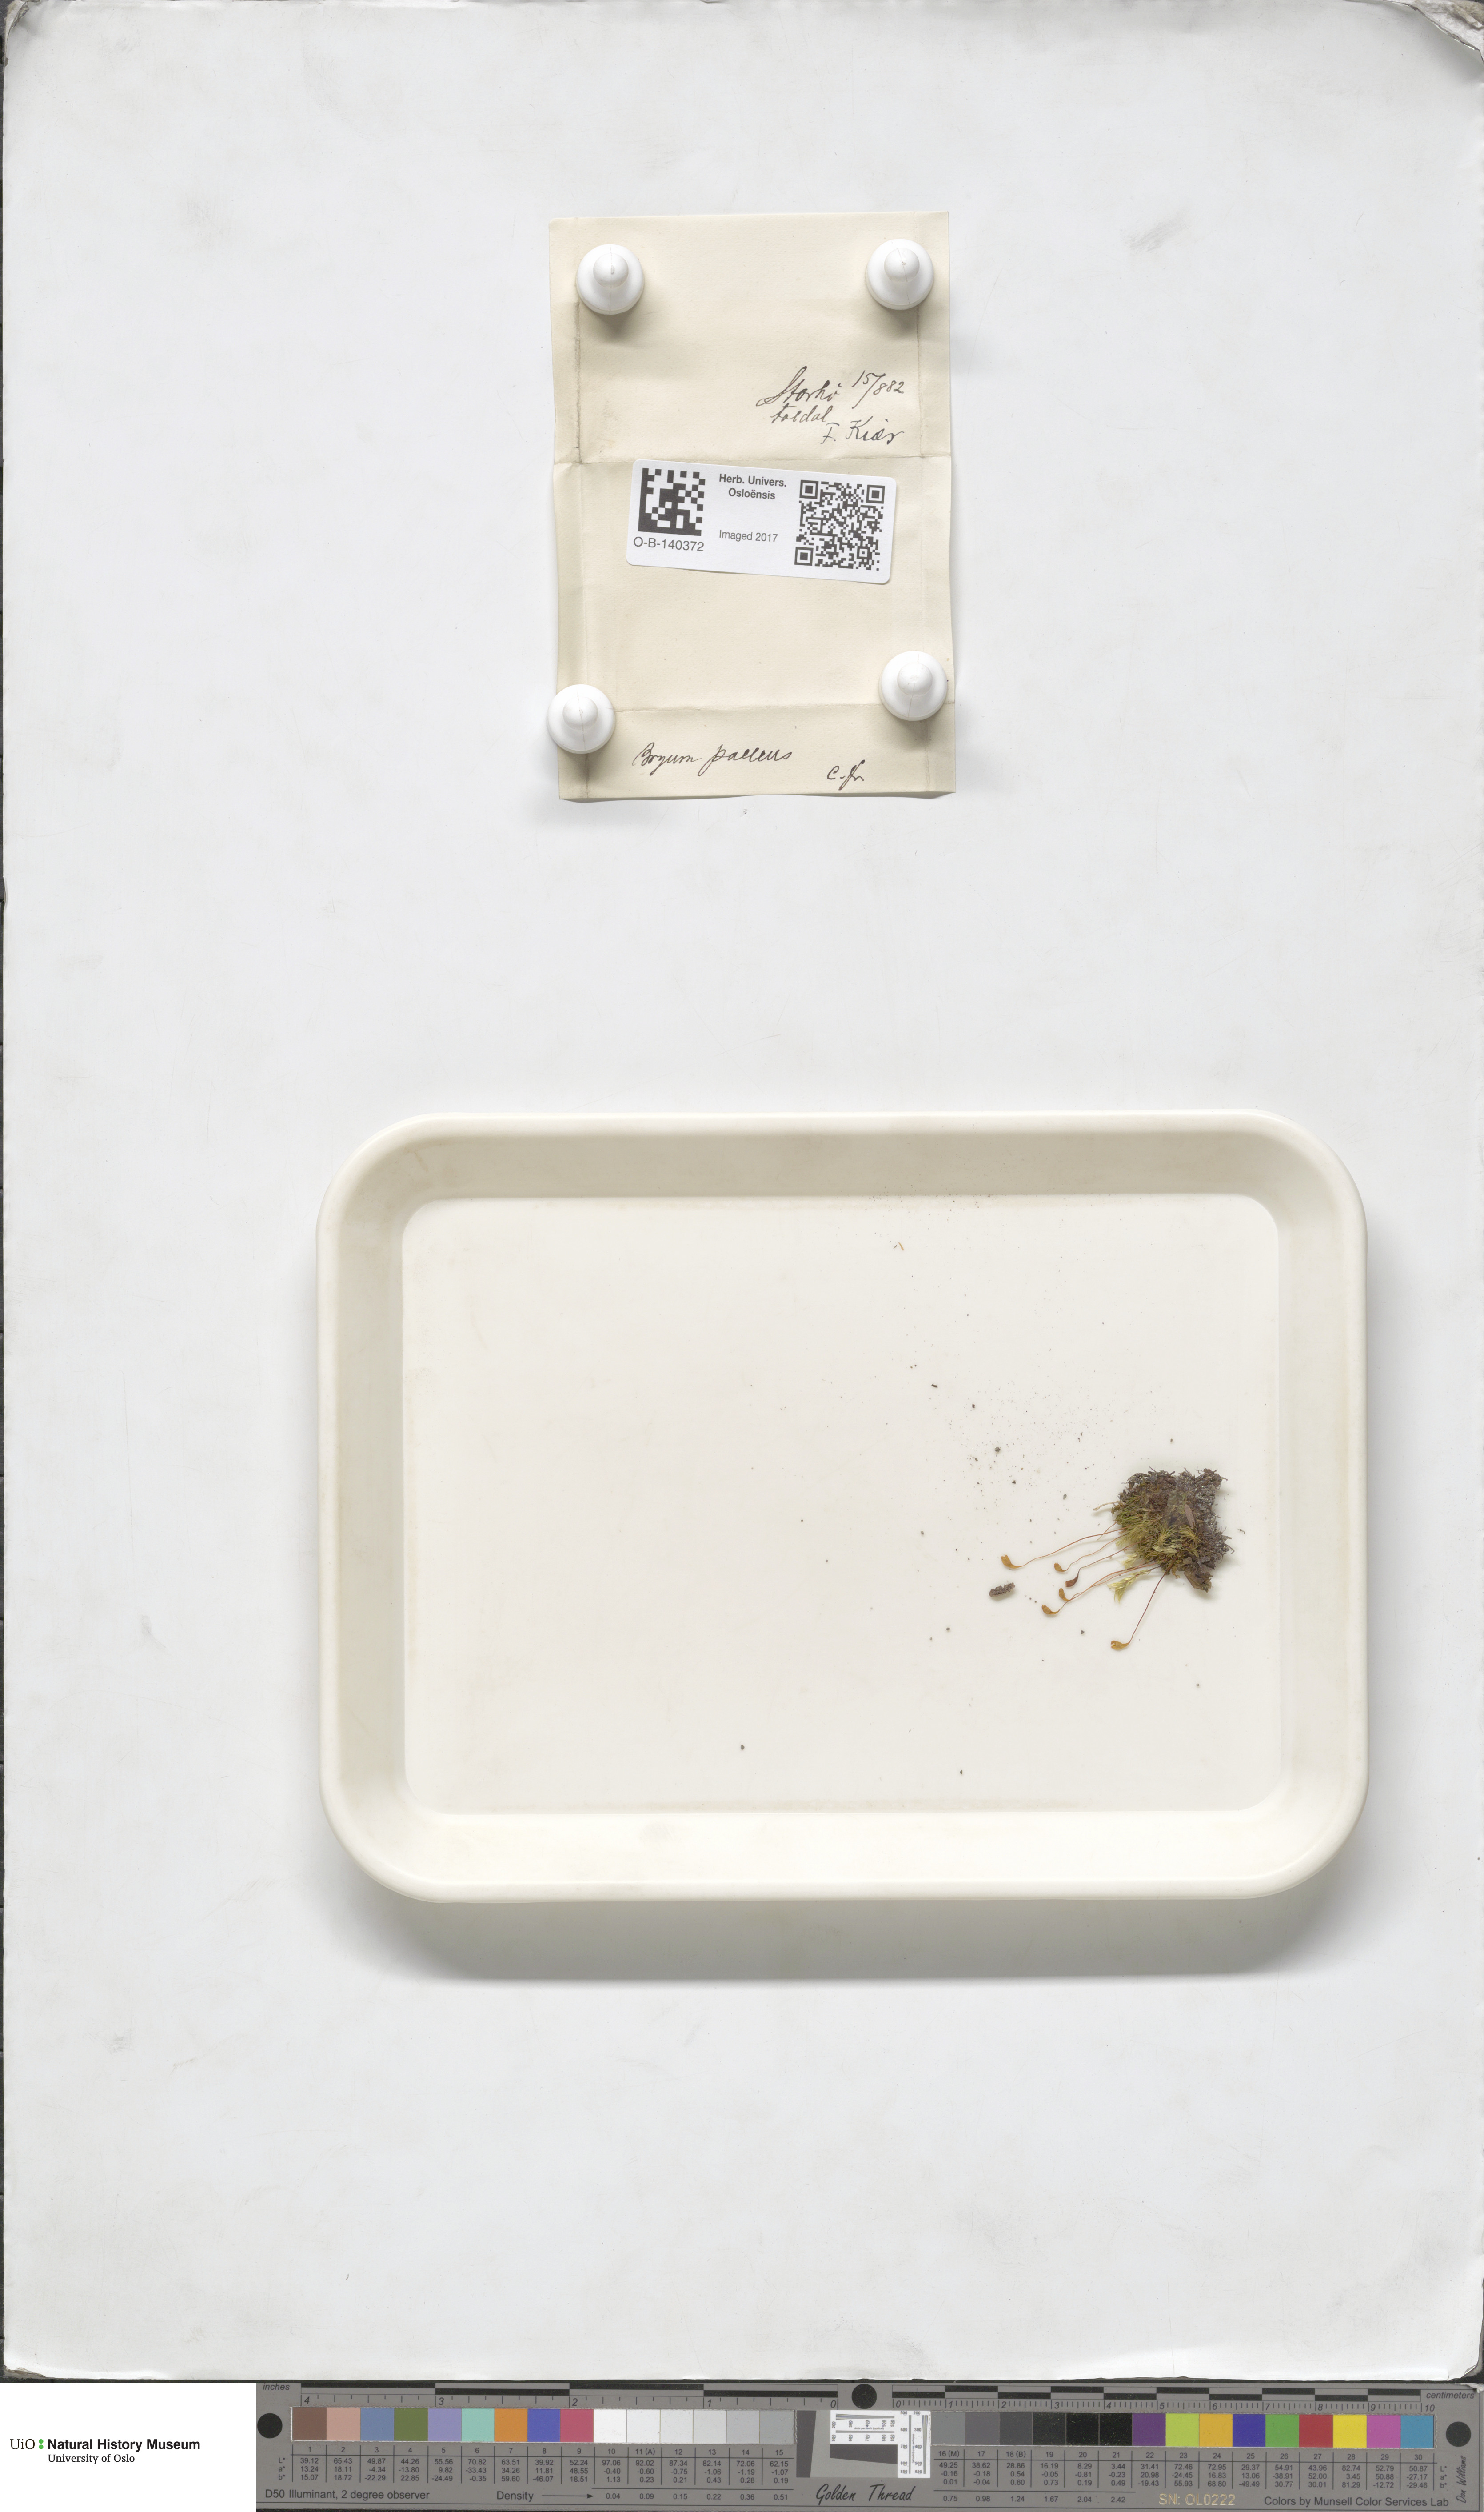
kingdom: Plantae
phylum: Bryophyta
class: Bryopsida
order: Bryales
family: Bryaceae
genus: Ptychostomum
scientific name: Ptychostomum pallens
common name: Pale thread-moss
